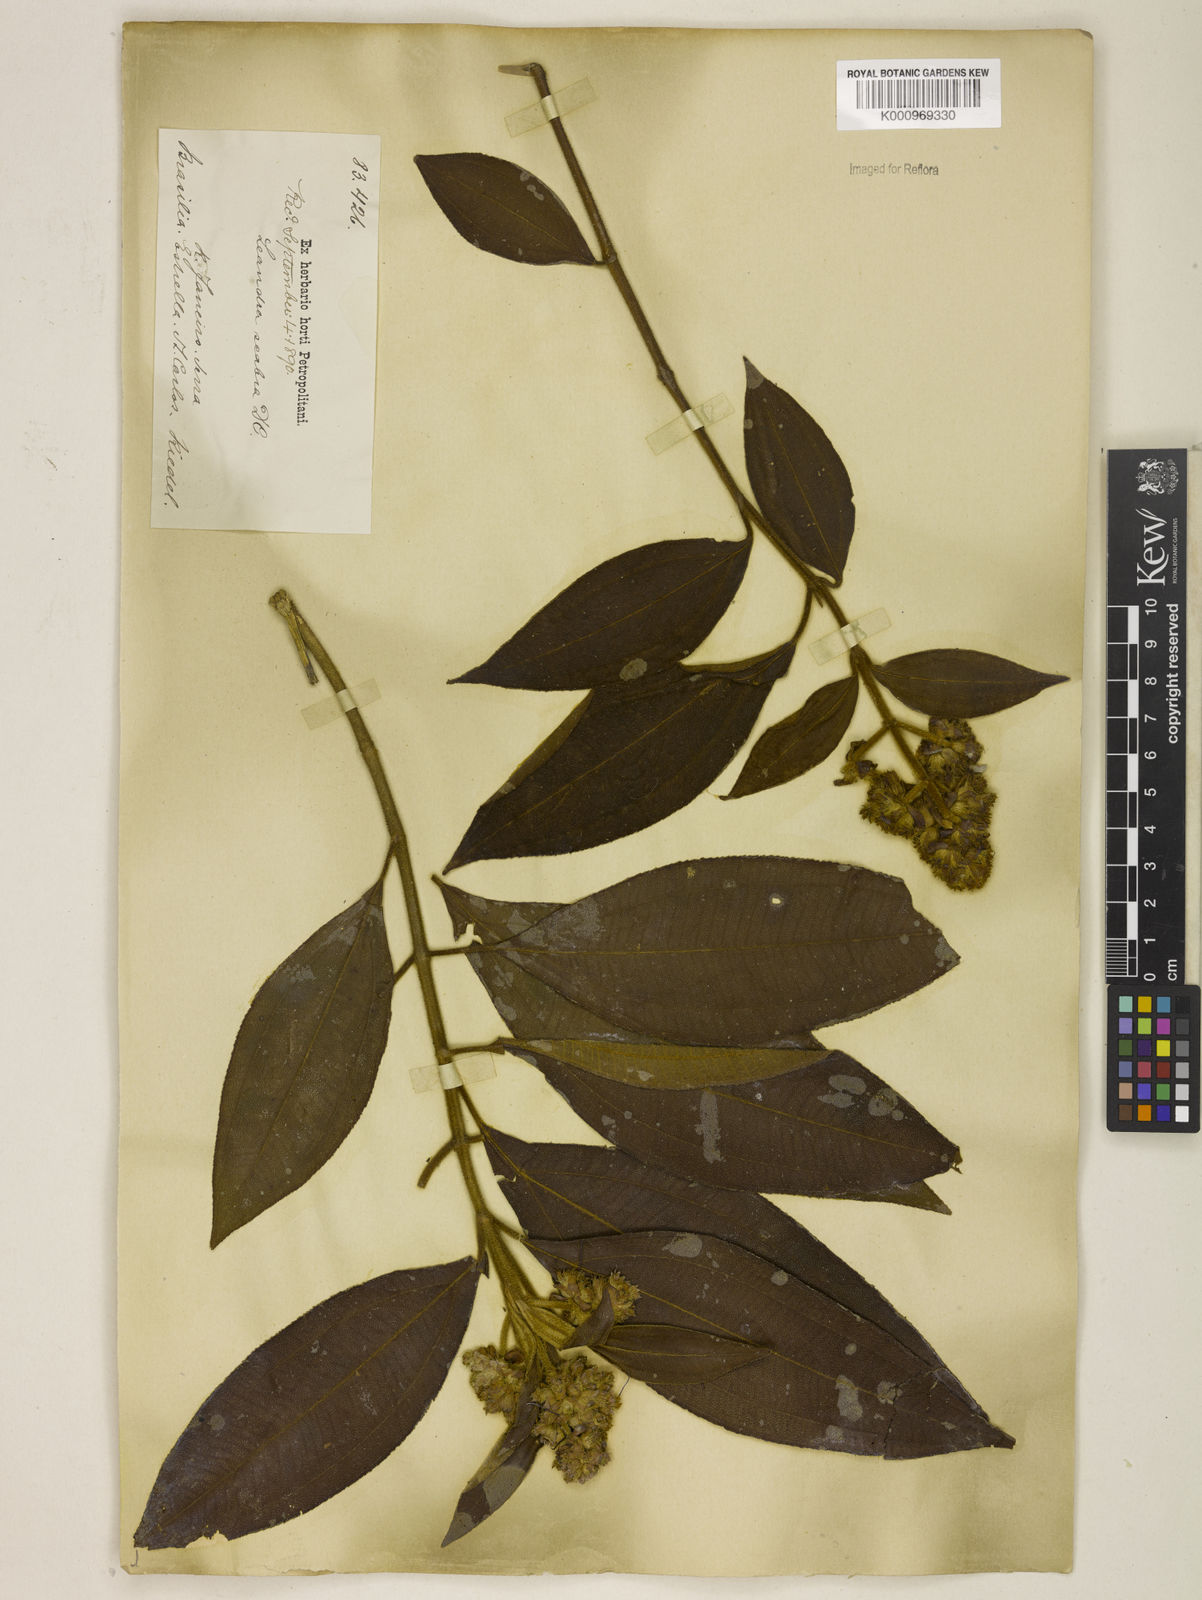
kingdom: Plantae
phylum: Tracheophyta
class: Magnoliopsida
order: Myrtales
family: Melastomataceae
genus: Miconia
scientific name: Miconia melastomoides
